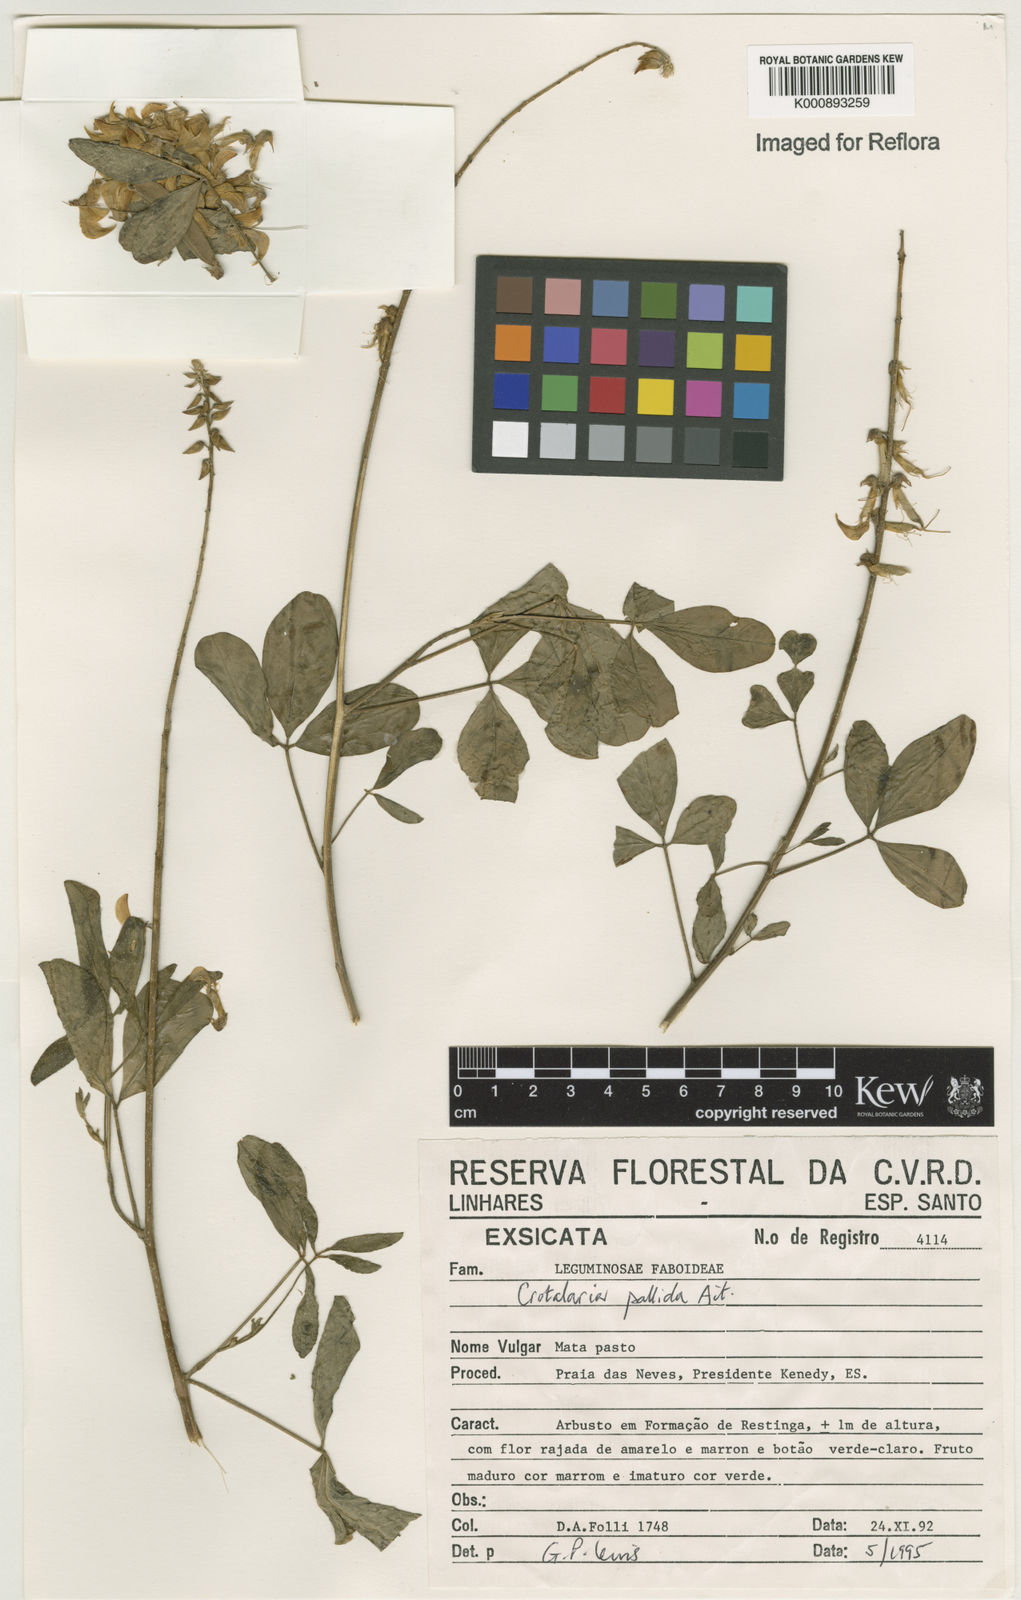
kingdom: Plantae
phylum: Tracheophyta
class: Magnoliopsida
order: Fabales
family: Fabaceae
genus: Crotalaria
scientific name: Crotalaria pallida
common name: Smooth rattlebox
